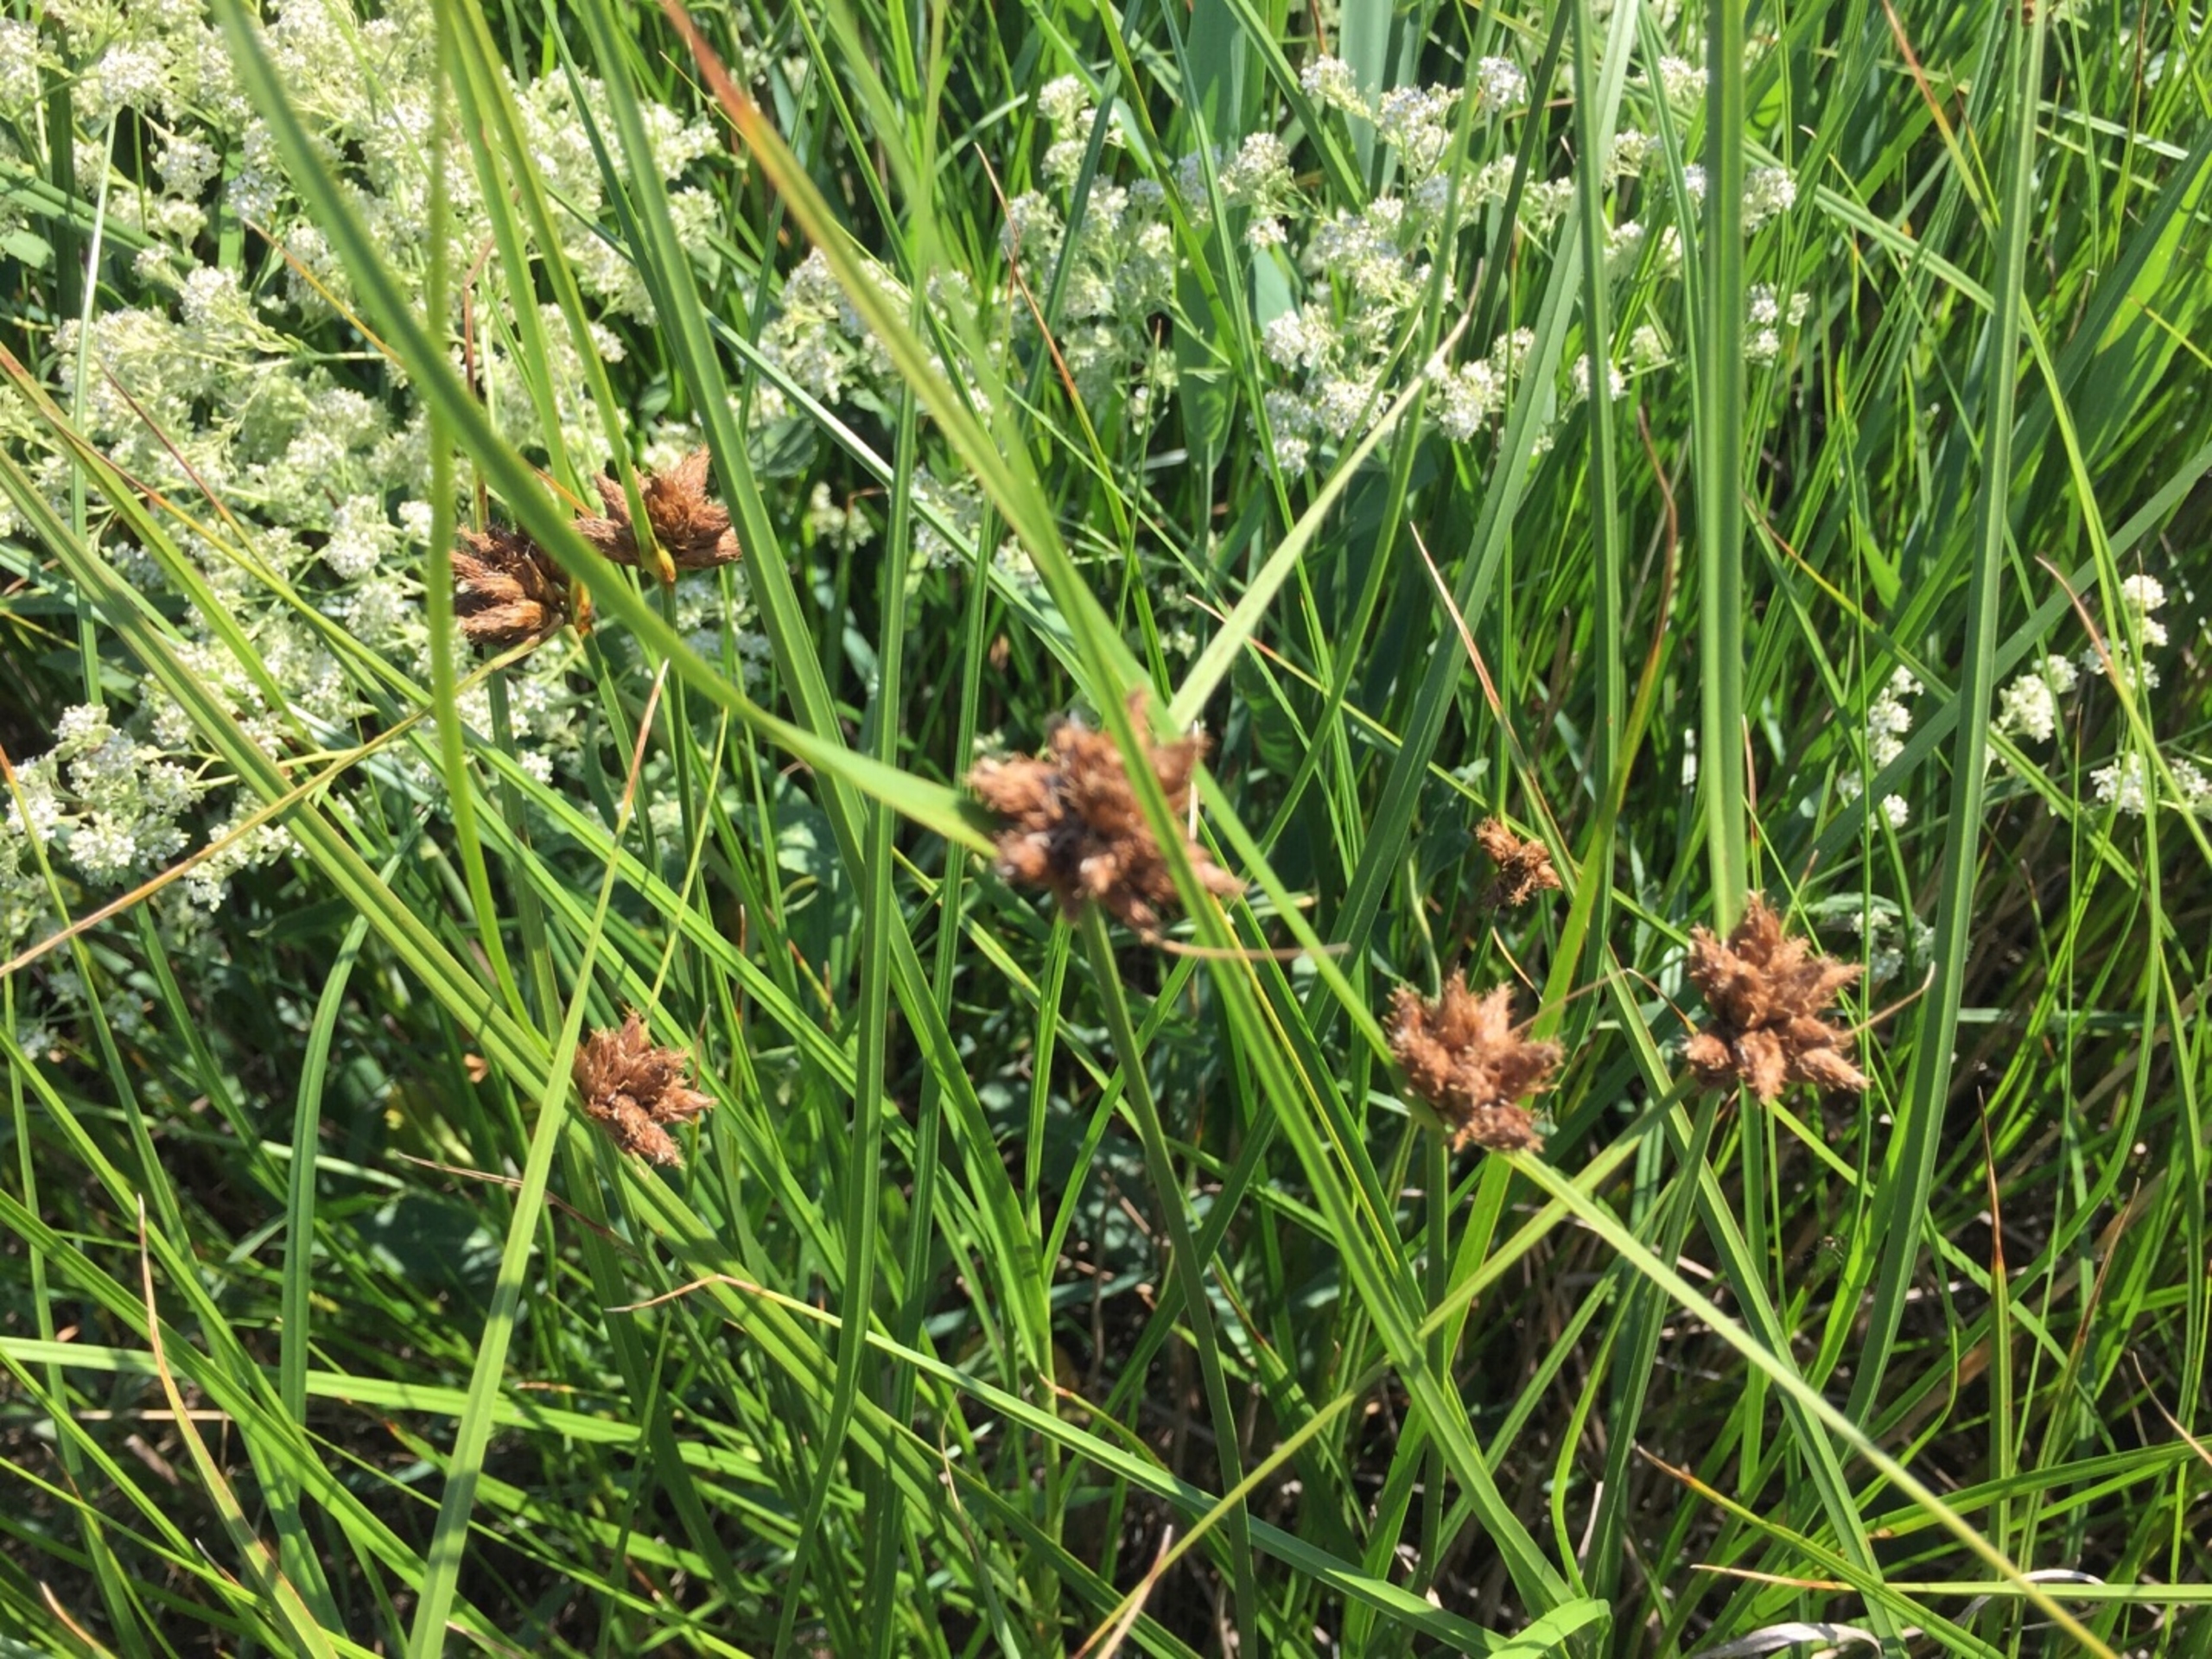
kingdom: Plantae
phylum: Tracheophyta
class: Liliopsida
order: Poales
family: Cyperaceae
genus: Bolboschoenus
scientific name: Bolboschoenus maritimus
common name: Strand-kogleaks
